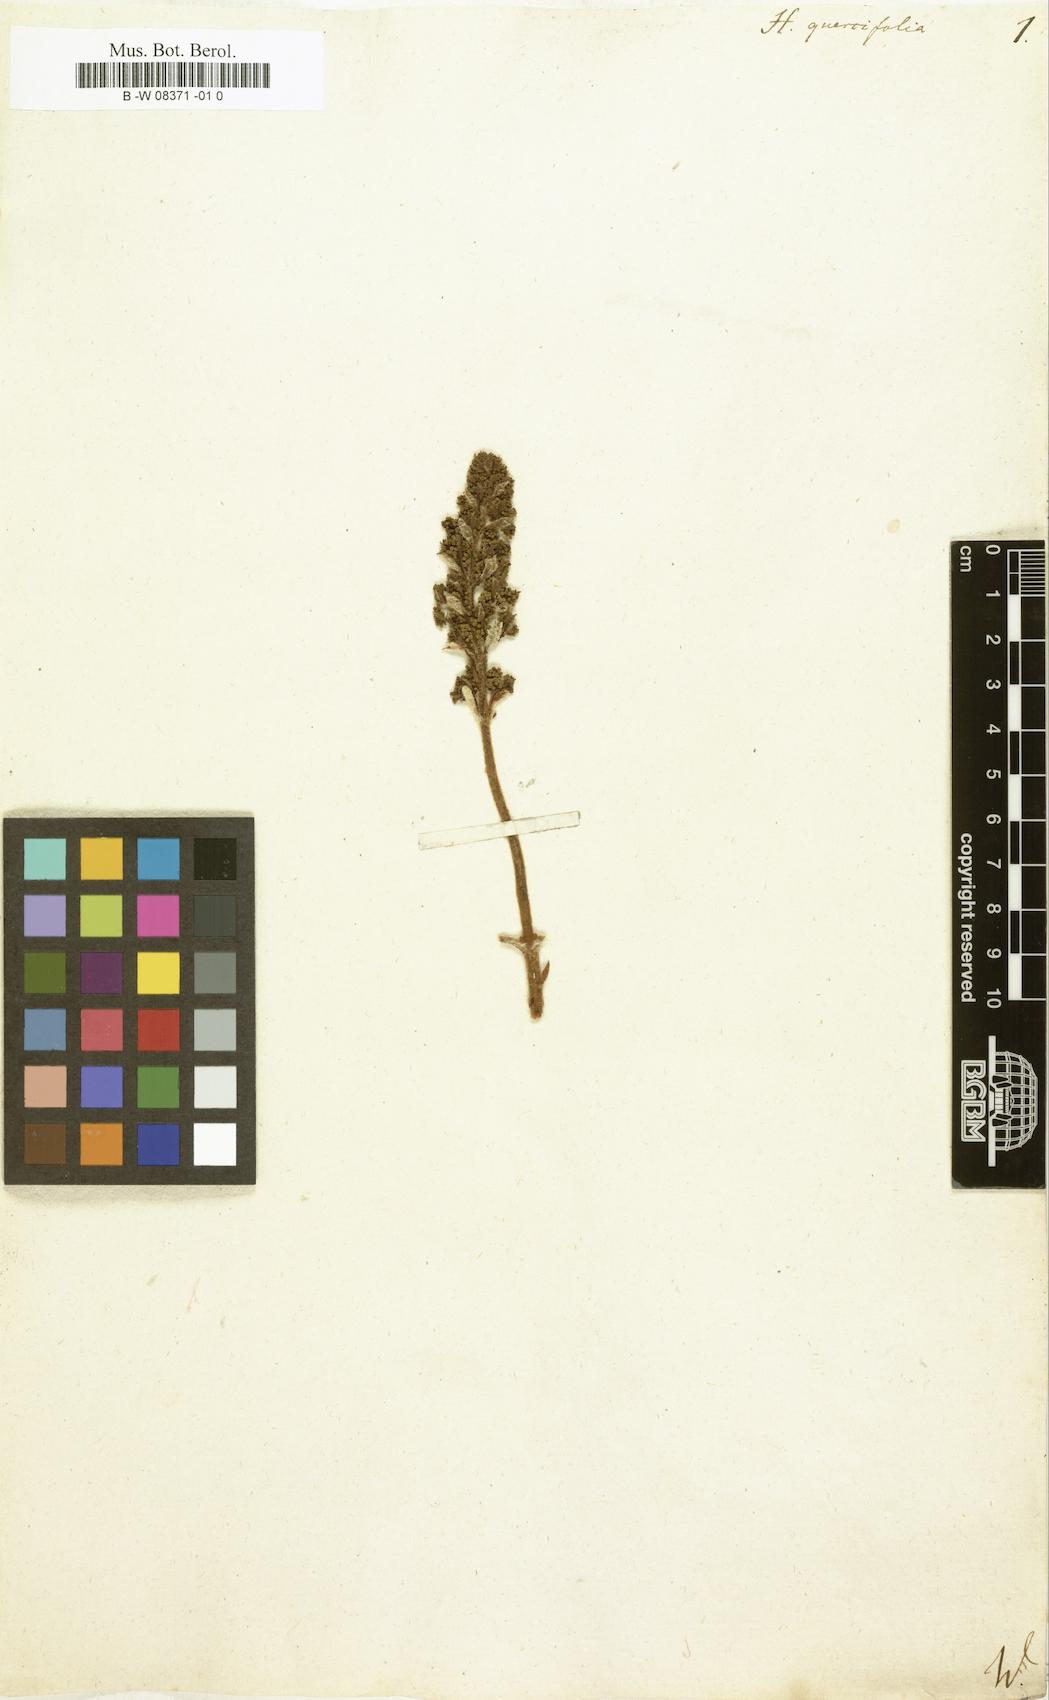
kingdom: Plantae
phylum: Tracheophyta
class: Magnoliopsida
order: Cornales
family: Hydrangeaceae
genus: Hydrangea
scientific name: Hydrangea quercifolia
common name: Oak-leaf hydrangea
